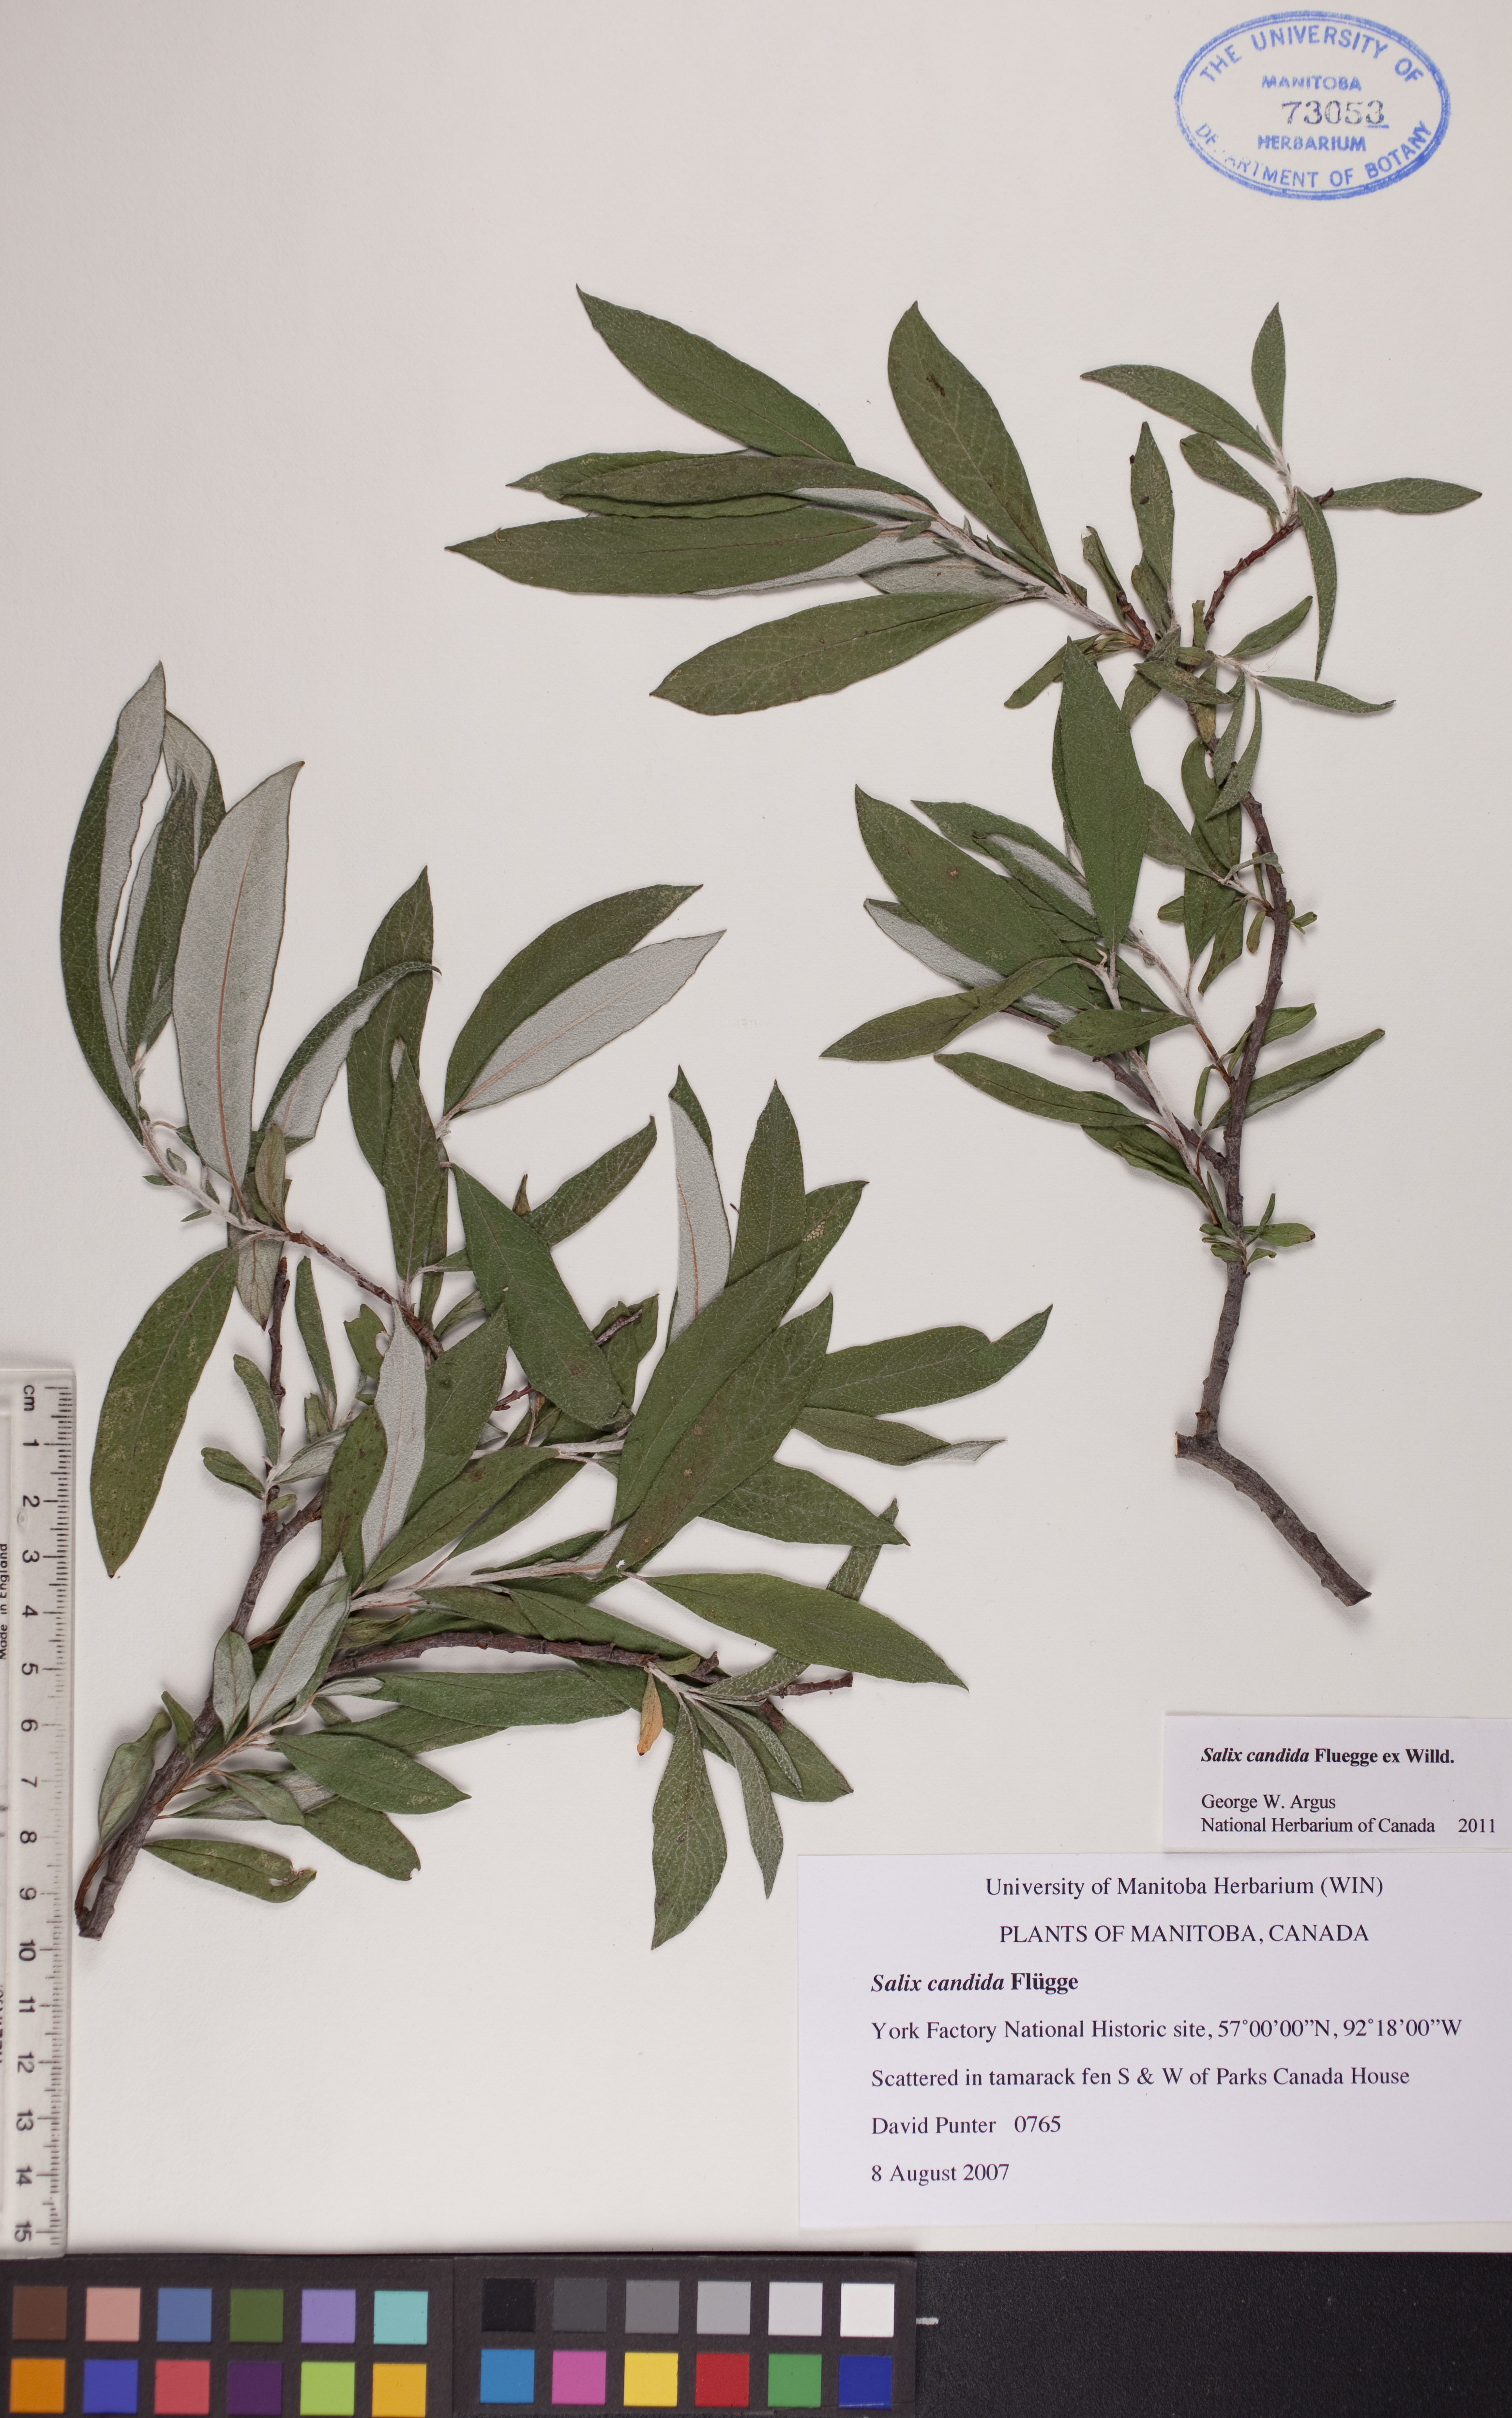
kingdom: Plantae
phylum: Tracheophyta
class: Magnoliopsida
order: Malpighiales
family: Salicaceae
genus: Salix
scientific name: Salix candida
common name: Hoary willow
